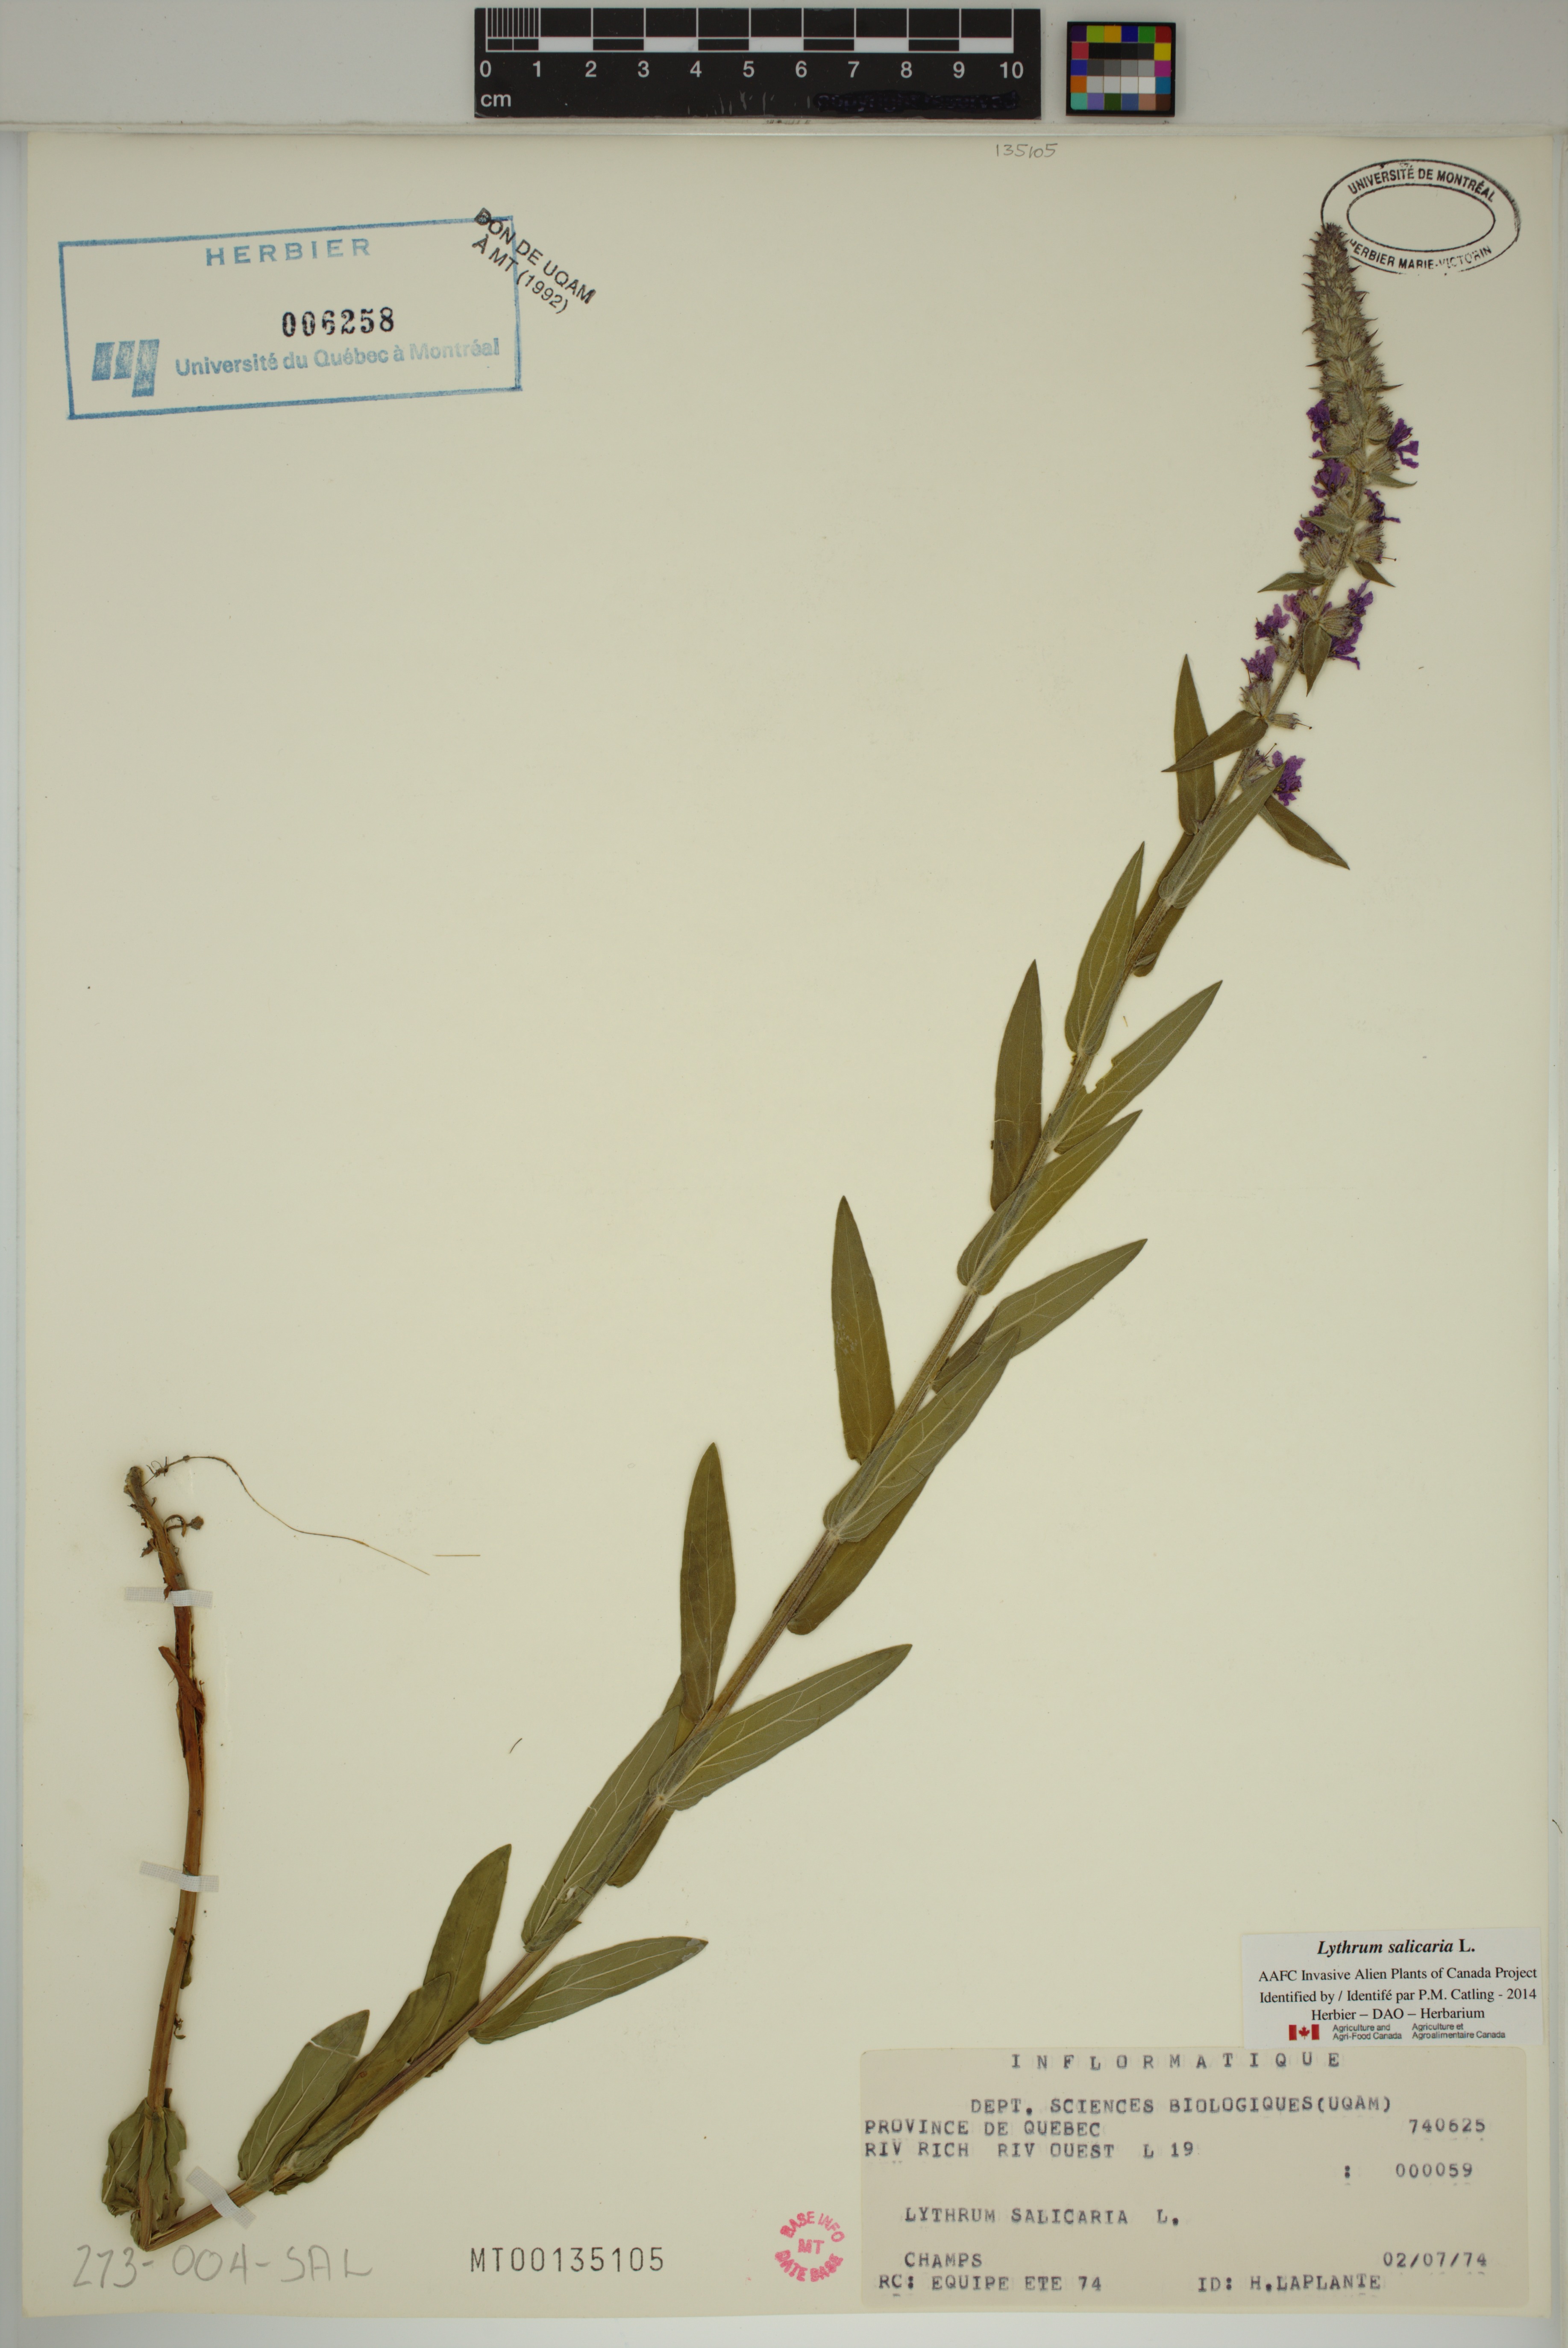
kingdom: Plantae
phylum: Tracheophyta
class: Magnoliopsida
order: Myrtales
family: Lythraceae
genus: Lythrum
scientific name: Lythrum salicaria
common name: Purple loosestrife
